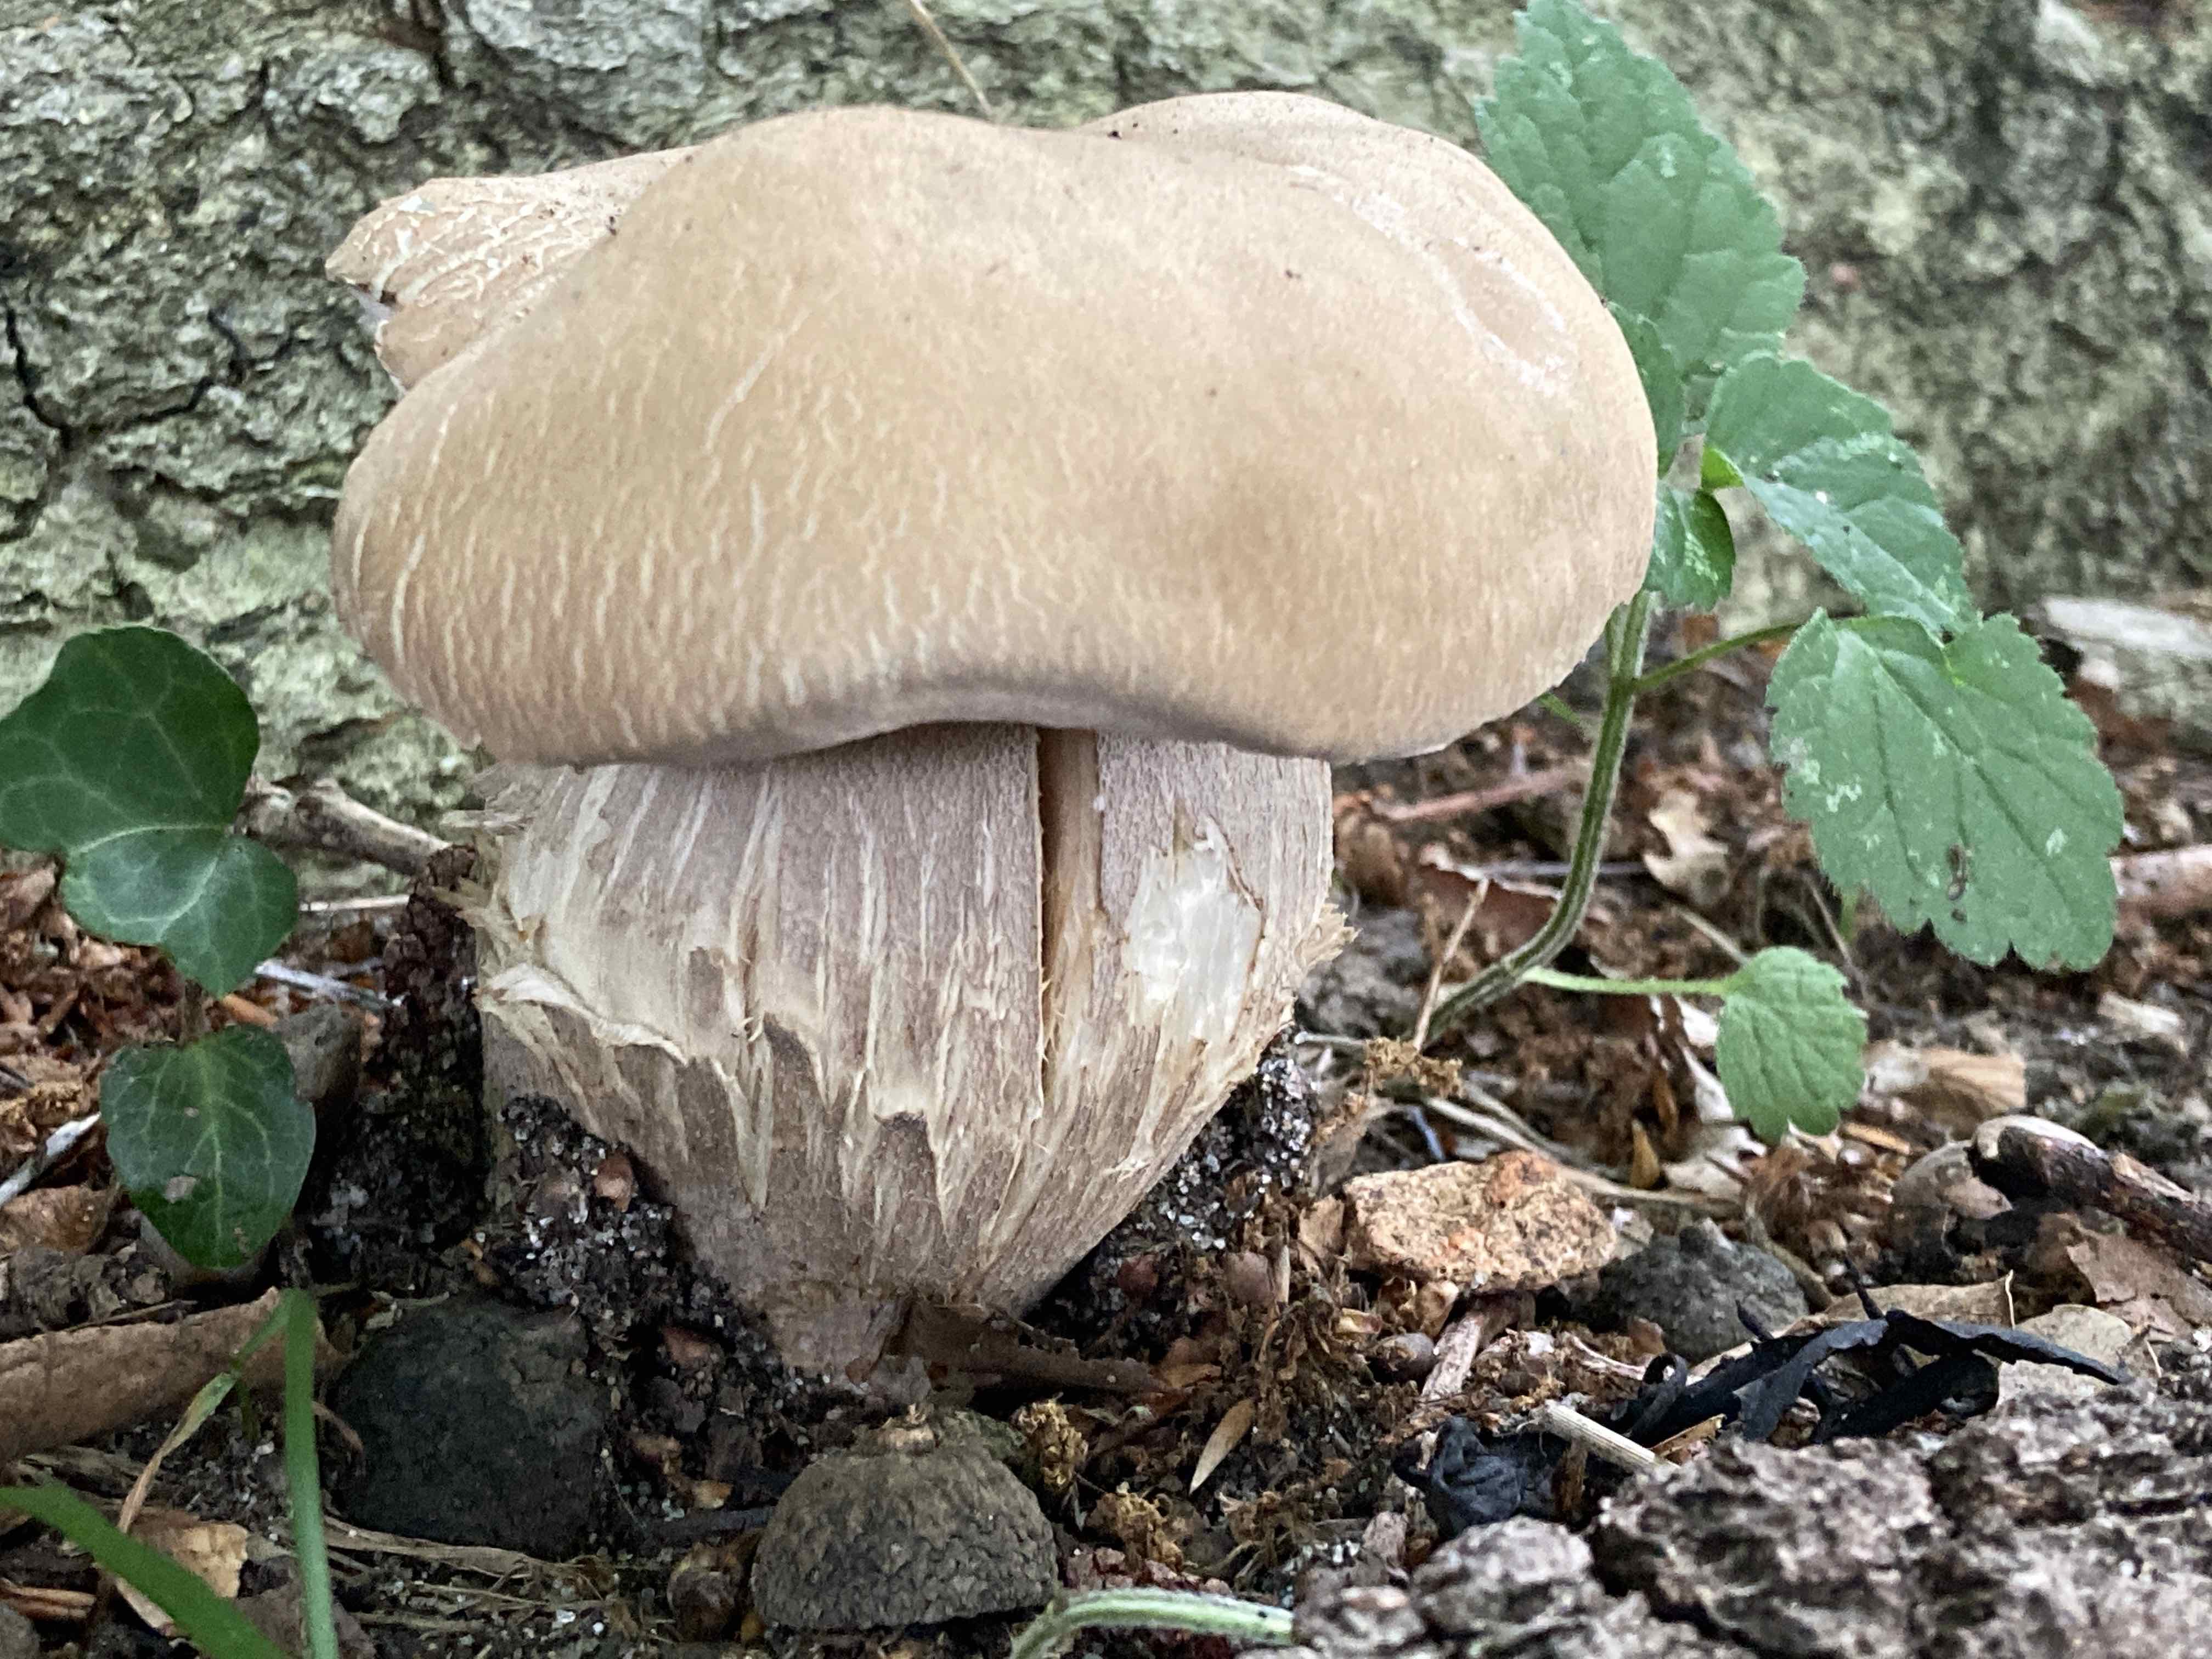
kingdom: Fungi
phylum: Basidiomycota
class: Agaricomycetes
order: Boletales
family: Boletaceae
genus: Boletus
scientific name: Boletus reticulatus
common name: sommer-rørhat
